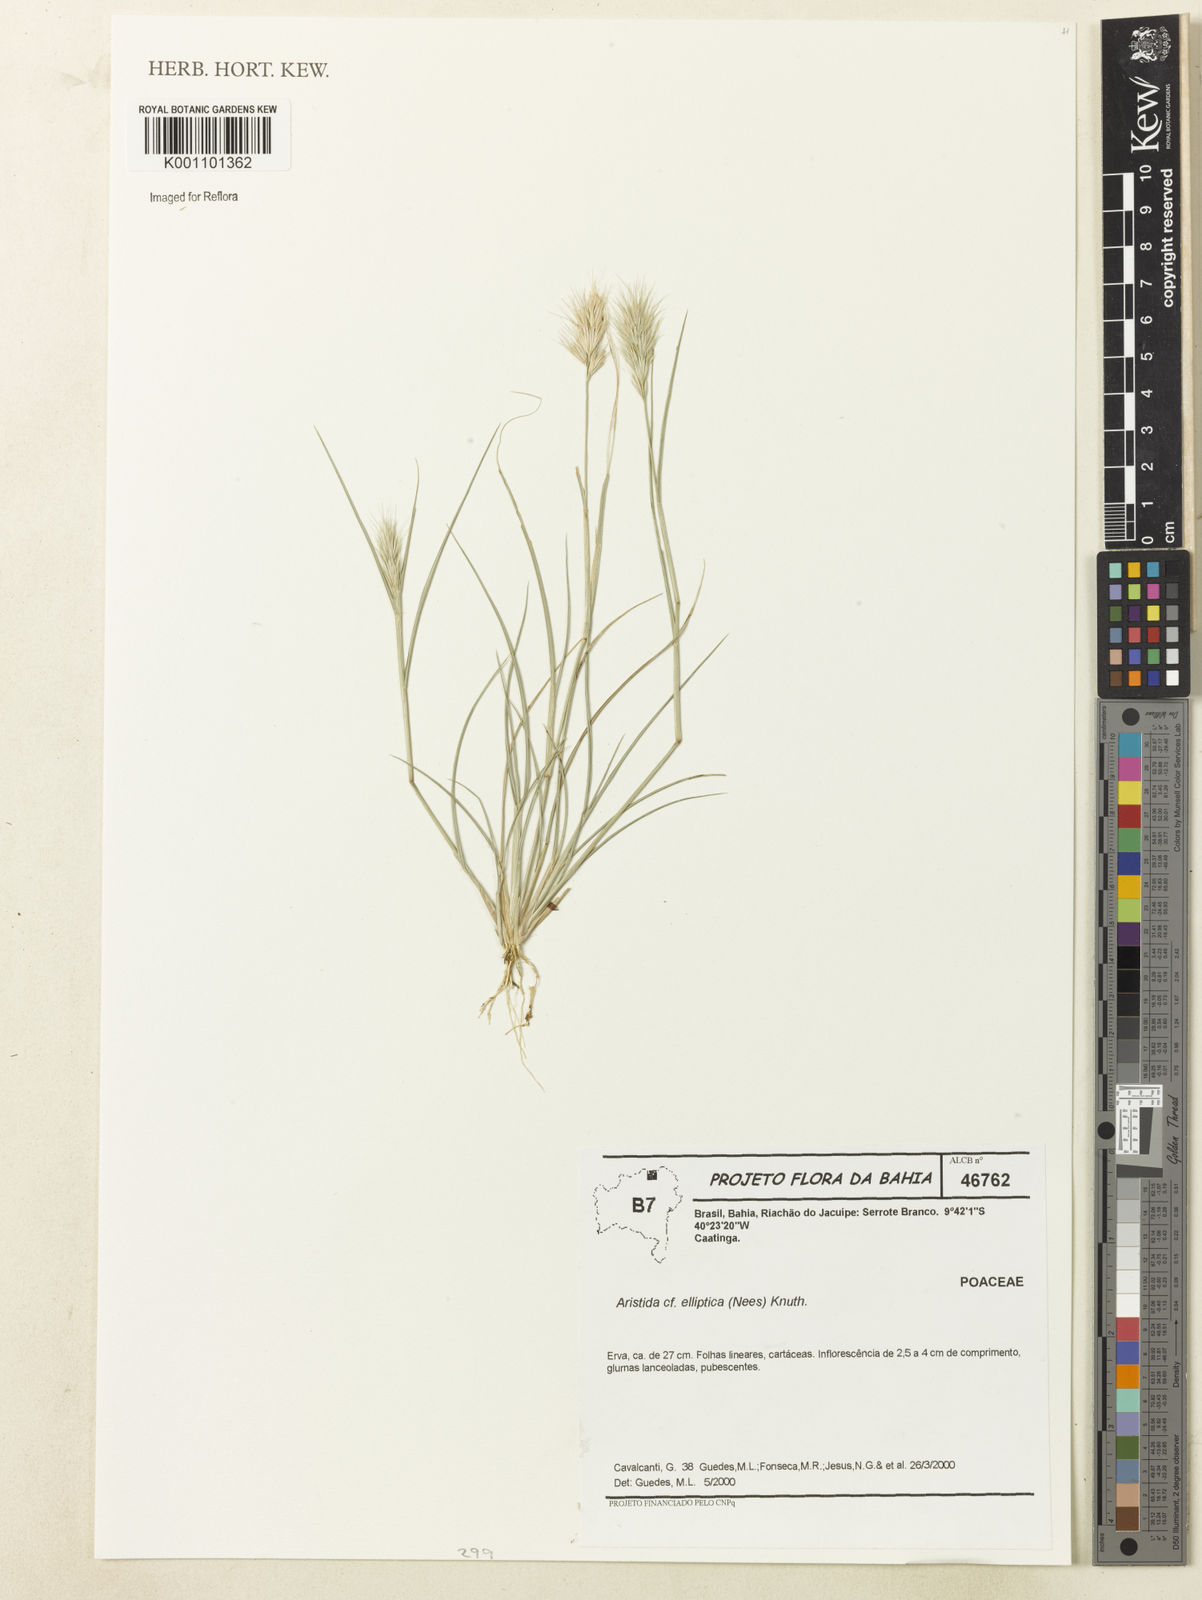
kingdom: Plantae
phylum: Tracheophyta
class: Liliopsida
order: Poales
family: Poaceae
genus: Aristida
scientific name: Aristida elliptica
